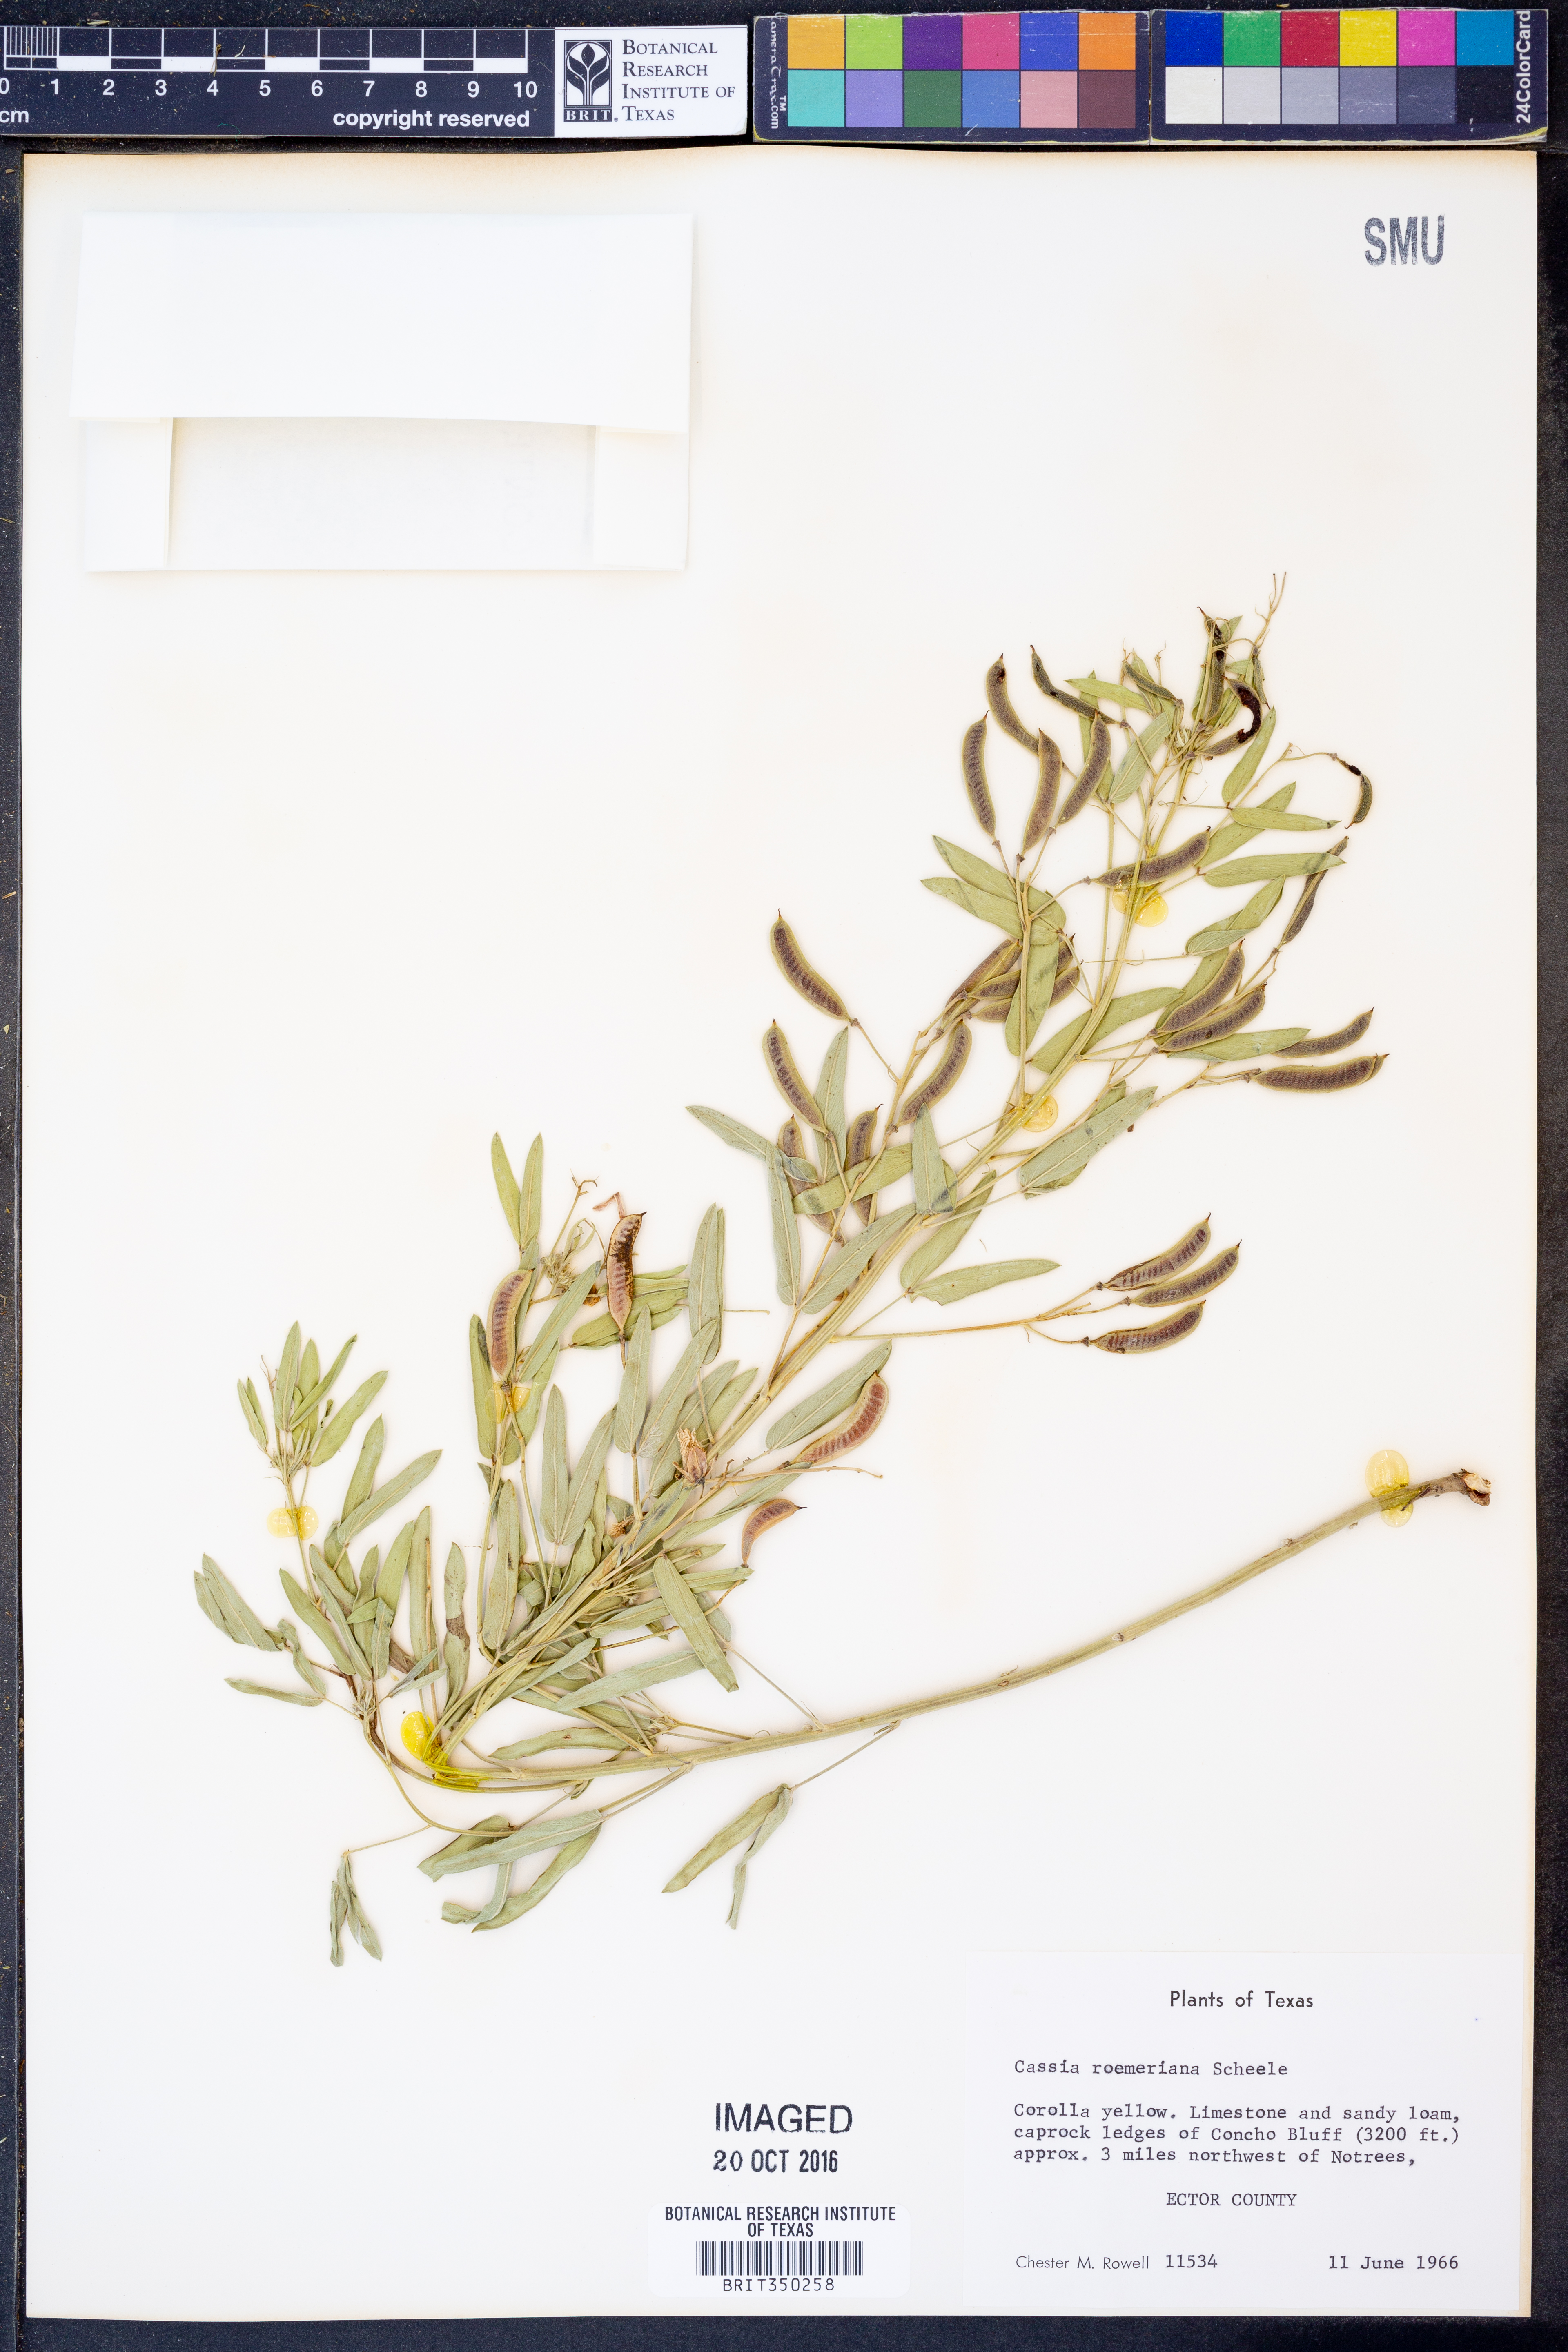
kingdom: Plantae
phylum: Tracheophyta
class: Magnoliopsida
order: Fabales
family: Fabaceae
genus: Senna
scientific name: Senna roemeriana
